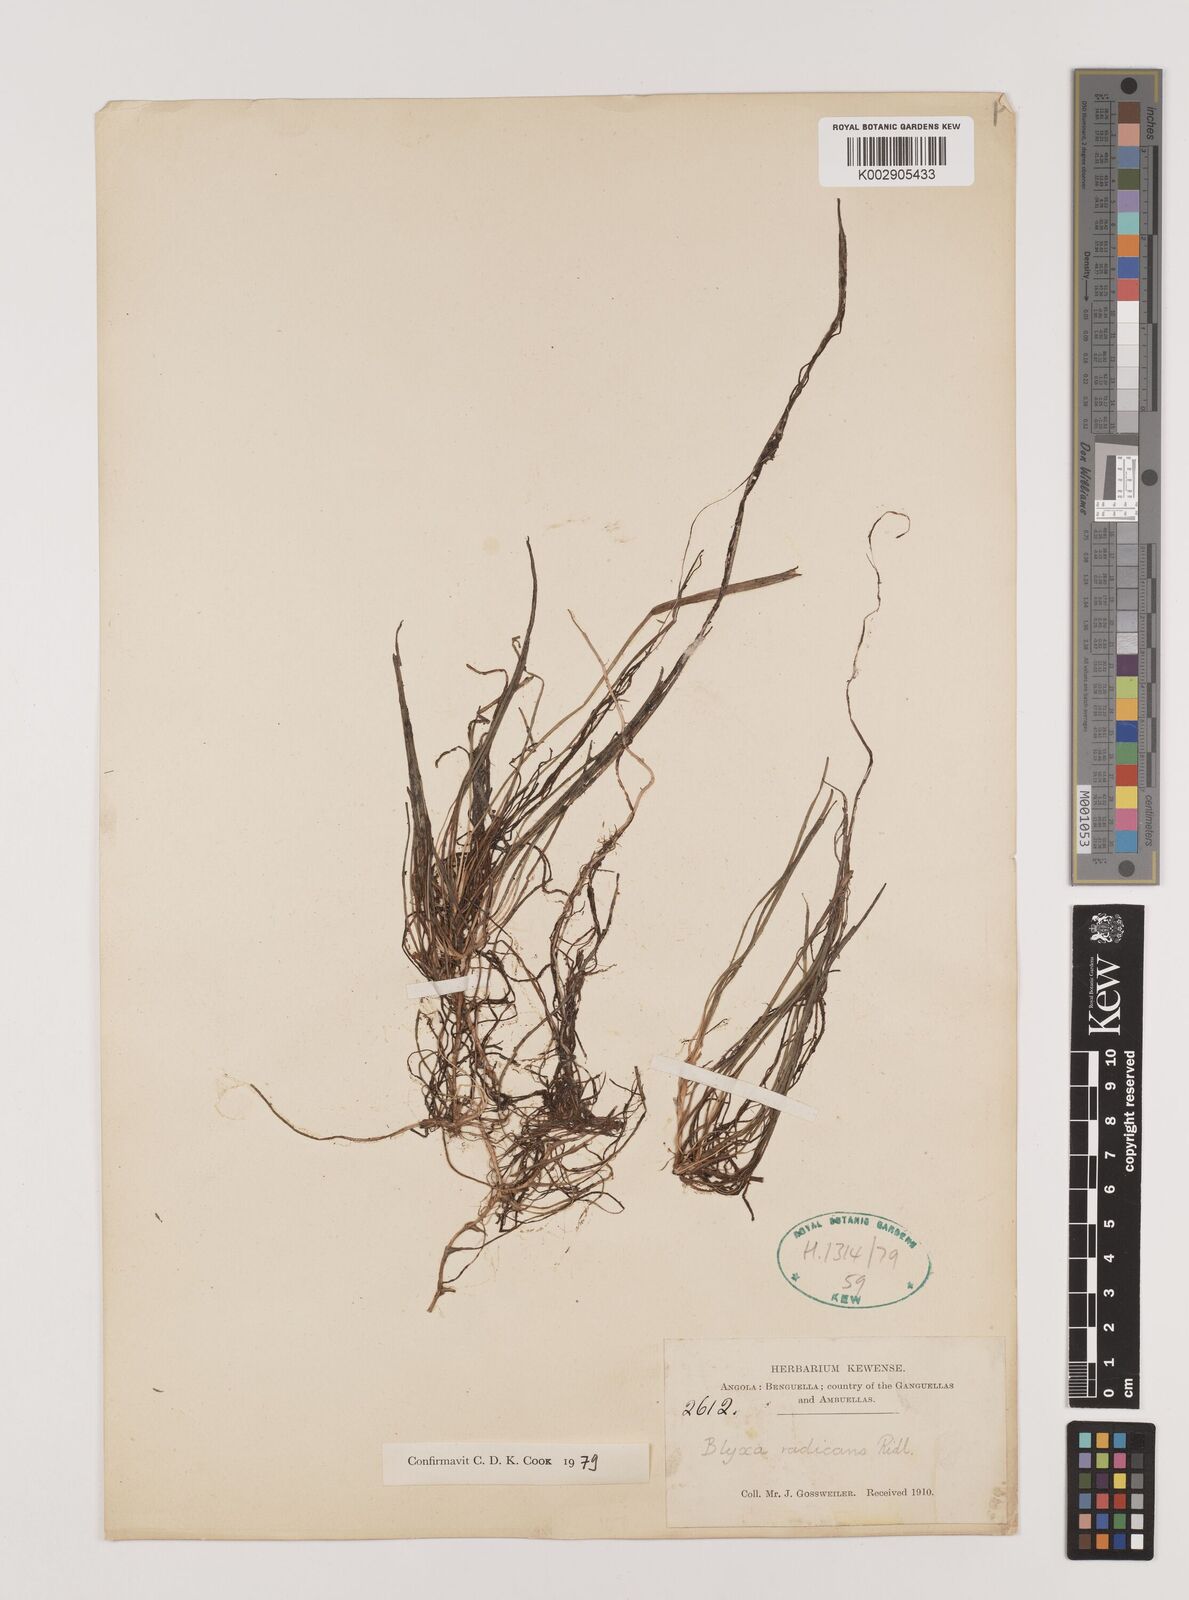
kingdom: Plantae
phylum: Tracheophyta
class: Liliopsida
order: Alismatales
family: Hydrocharitaceae
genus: Blyxa
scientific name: Blyxa radicans
